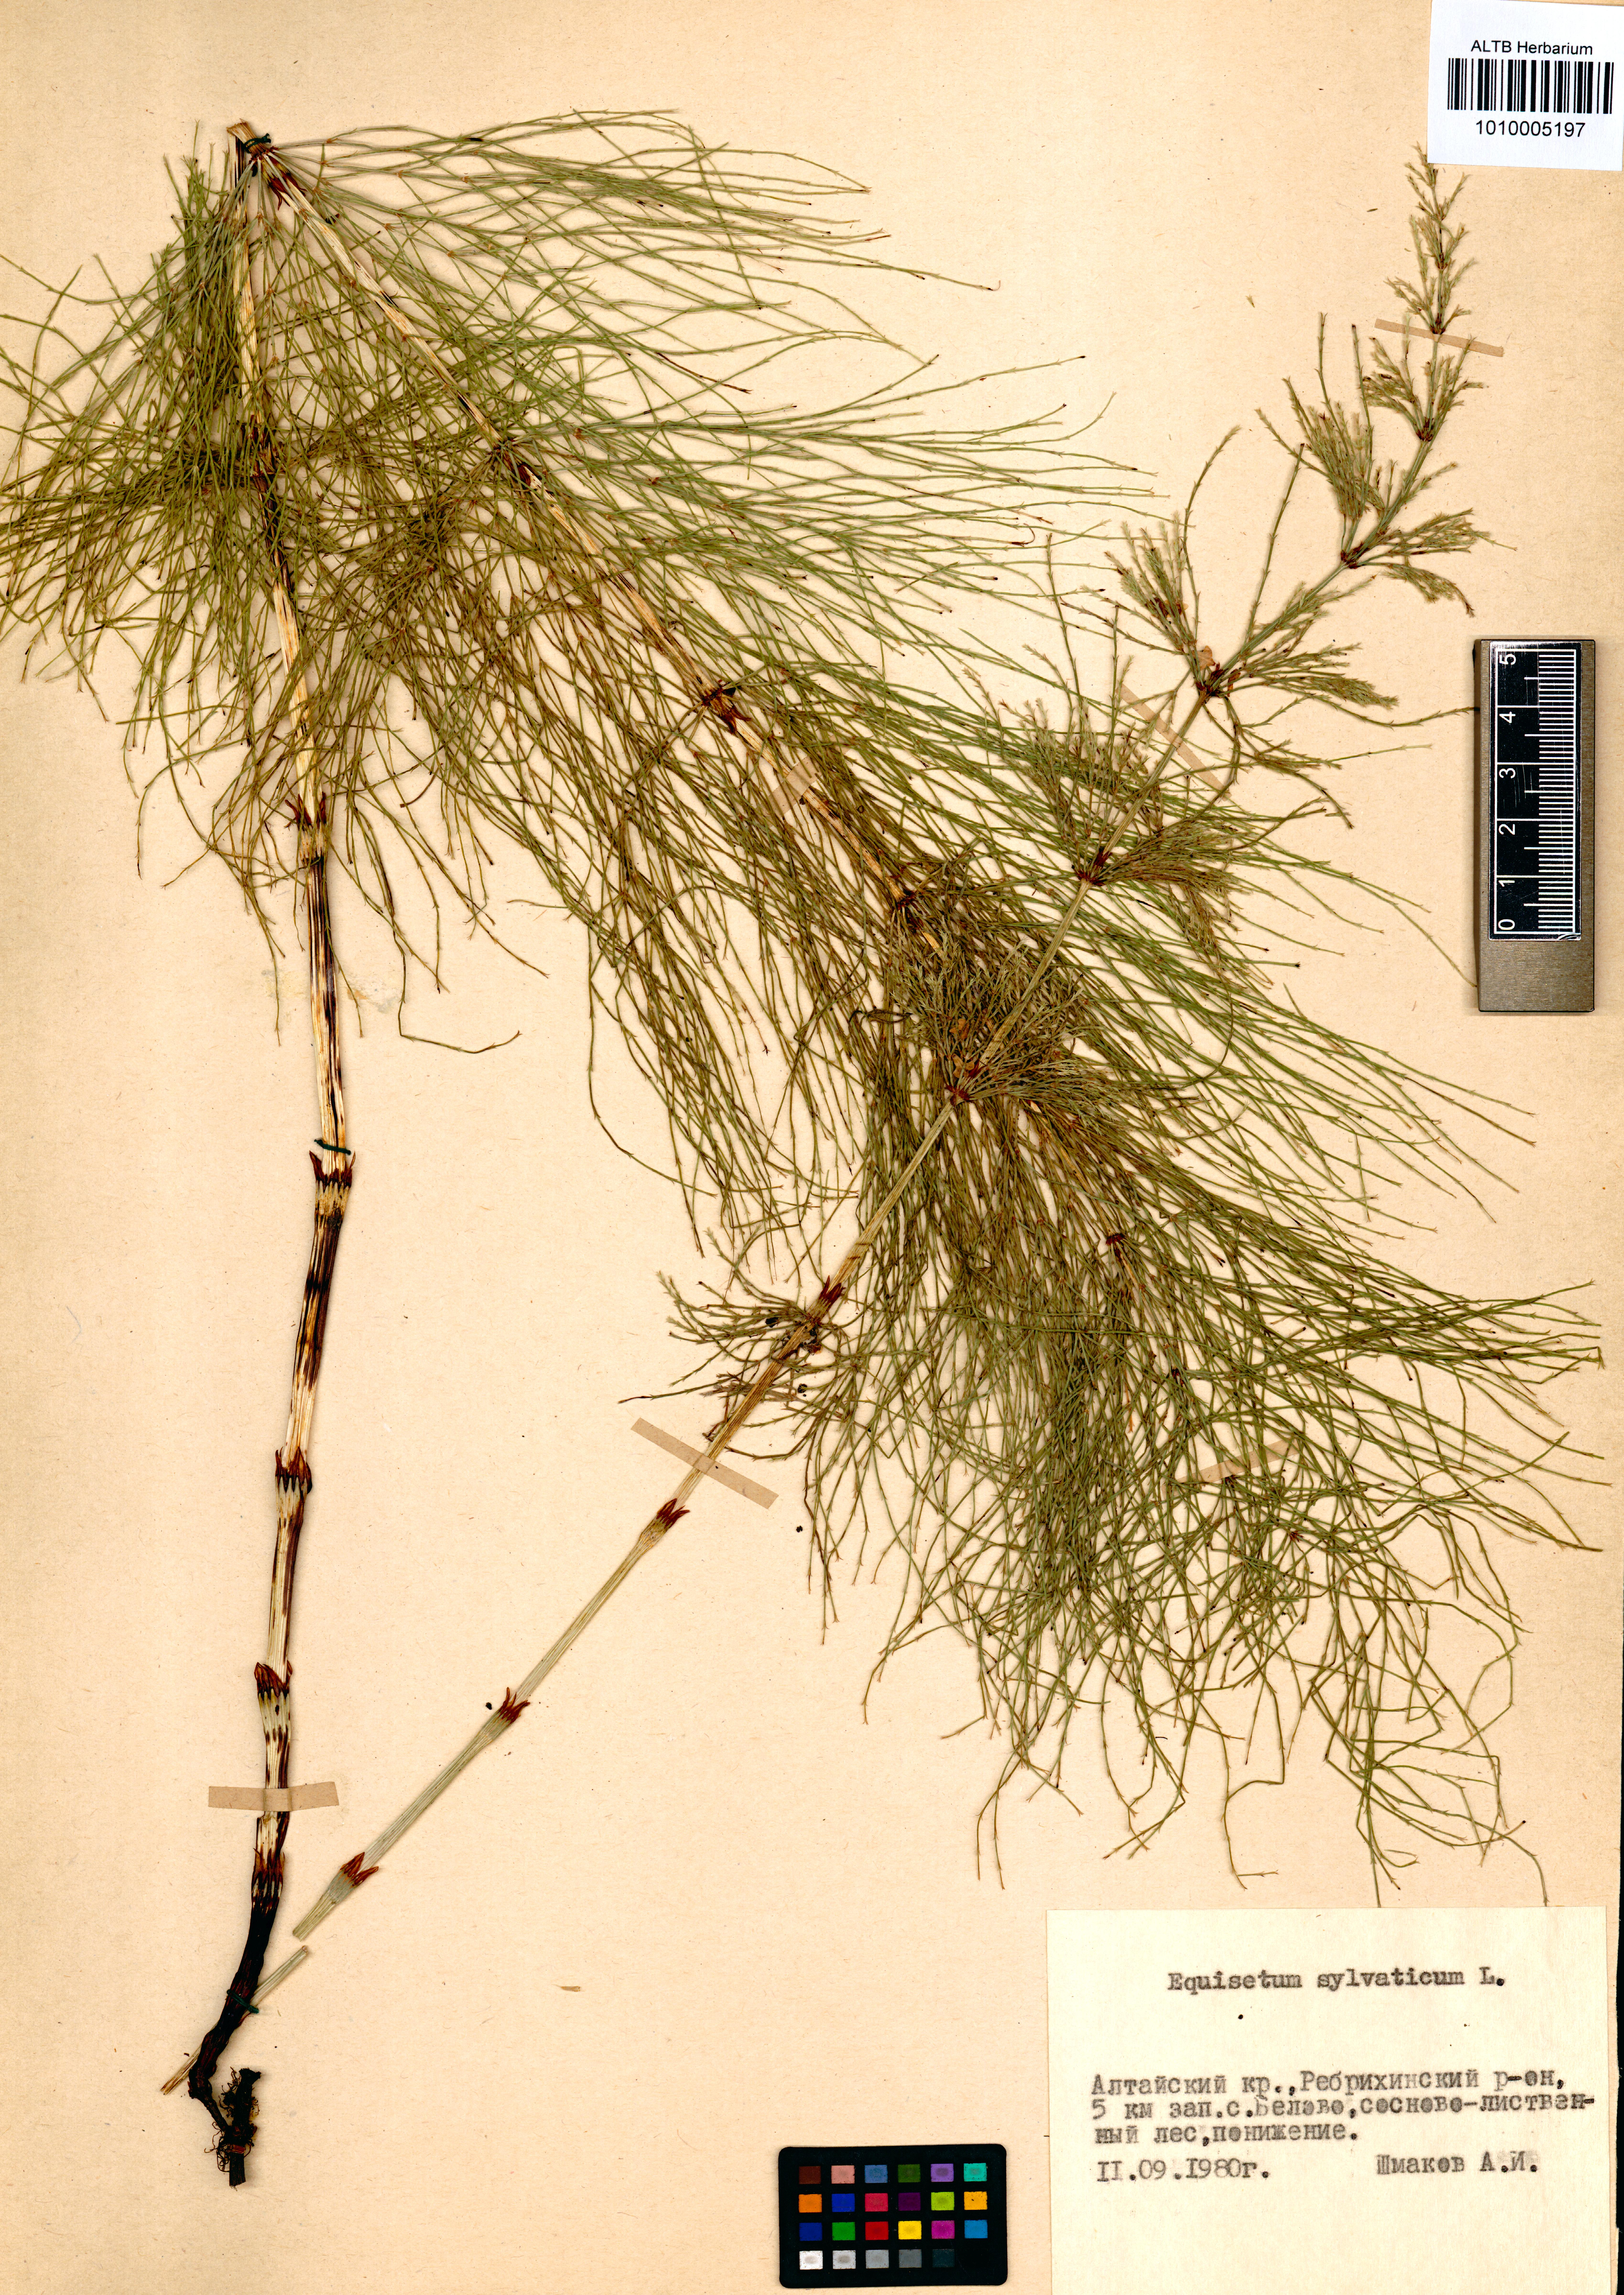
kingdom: Plantae
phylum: Tracheophyta
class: Polypodiopsida
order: Equisetales
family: Equisetaceae
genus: Equisetum
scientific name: Equisetum sylvaticum
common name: Wood horsetail
